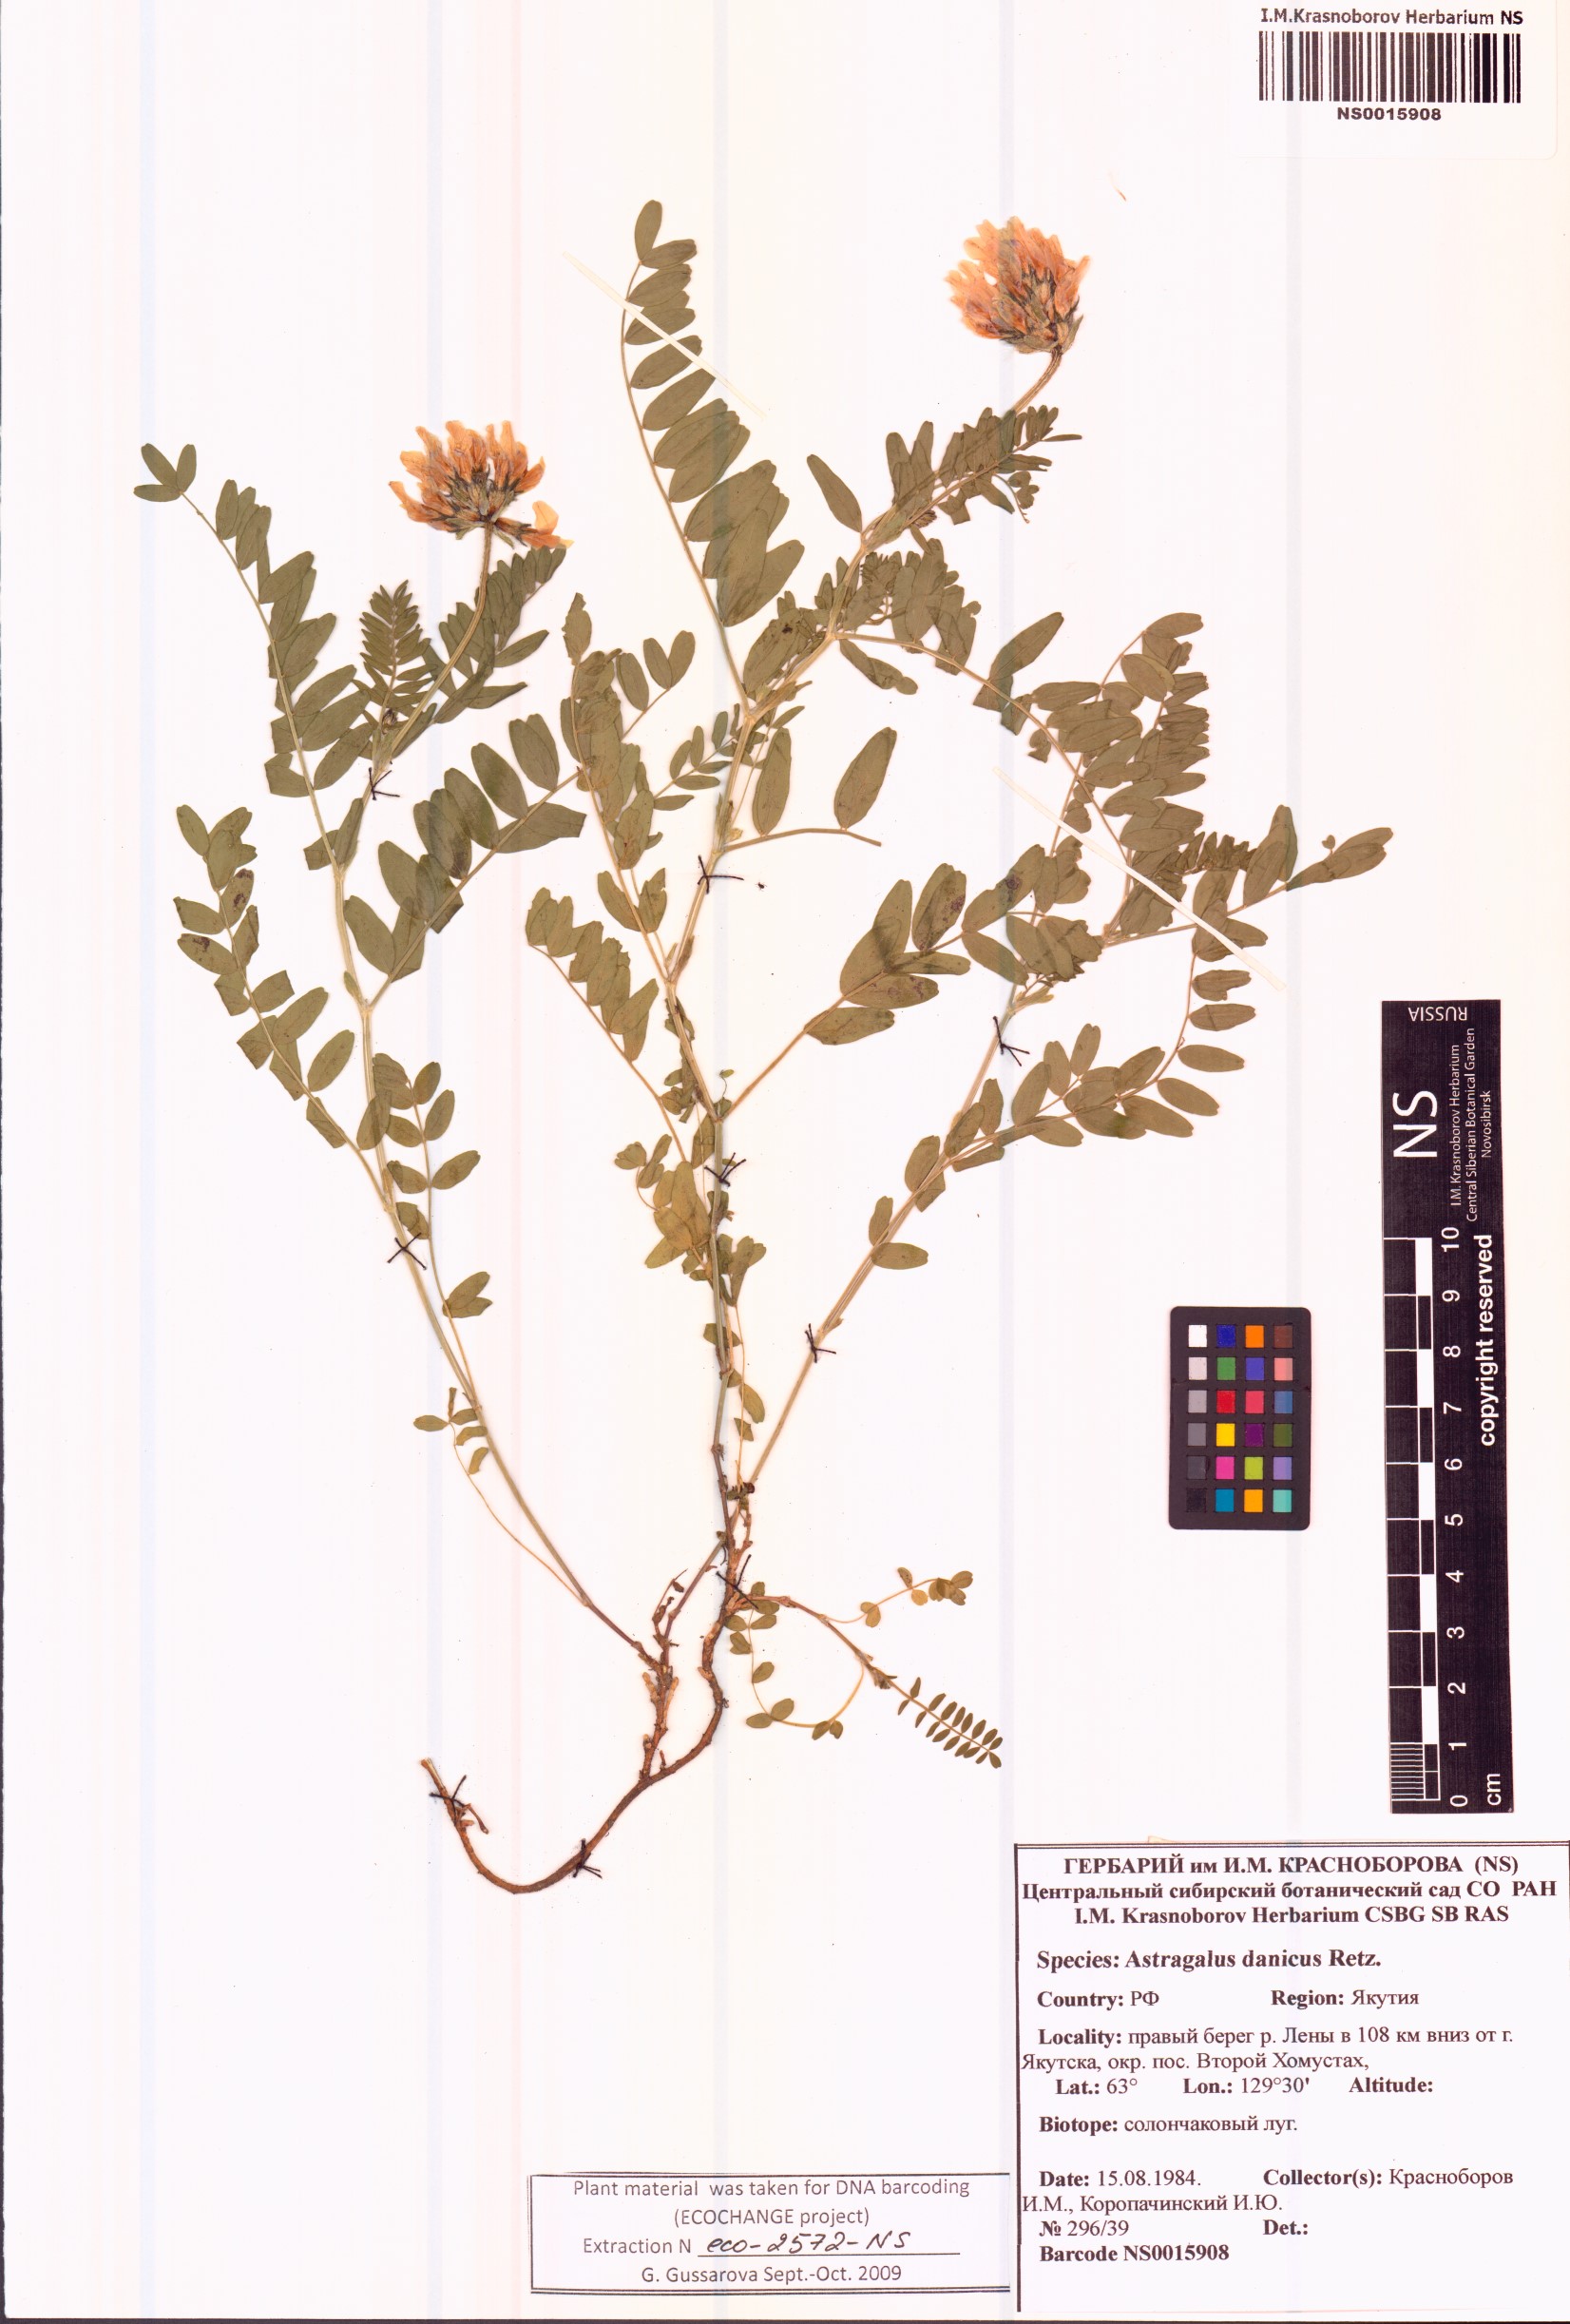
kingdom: Plantae
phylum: Tracheophyta
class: Magnoliopsida
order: Fabales
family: Fabaceae
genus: Astragalus
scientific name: Astragalus danicus
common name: Purple milk-vetch
